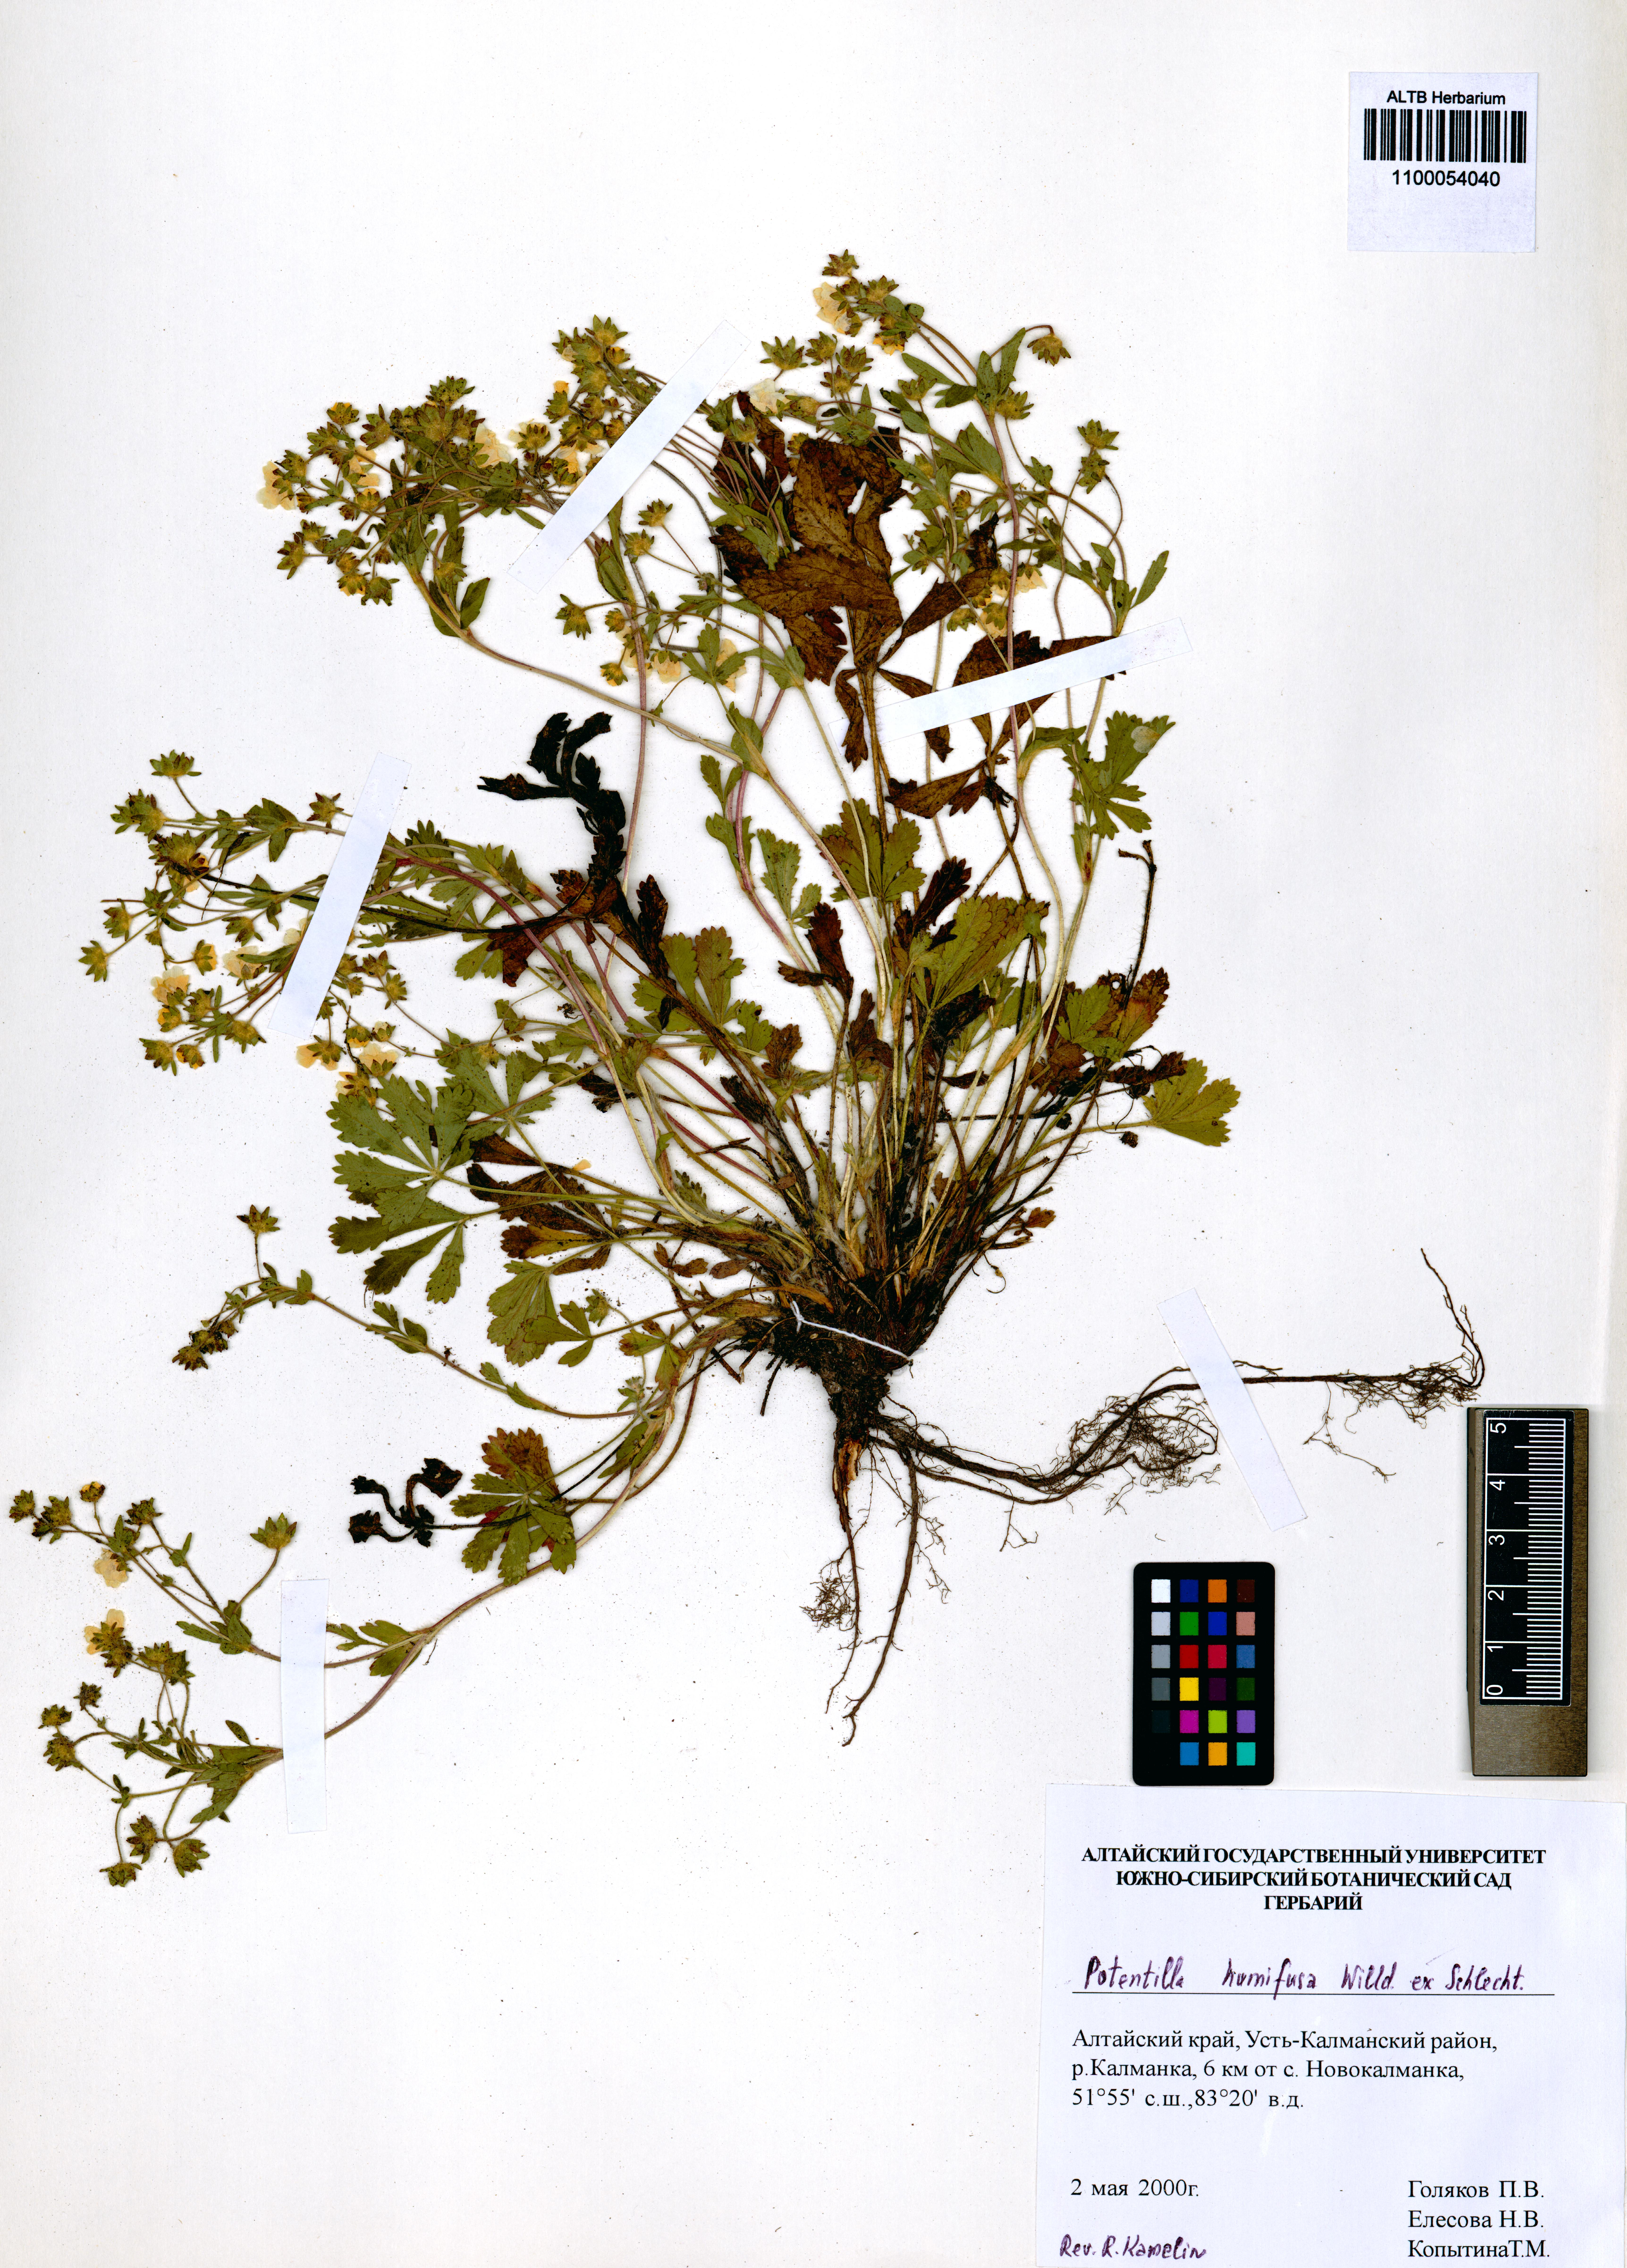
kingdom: Plantae
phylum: Tracheophyta
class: Magnoliopsida
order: Rosales
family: Rosaceae
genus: Potentilla
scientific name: Potentilla humifusa
